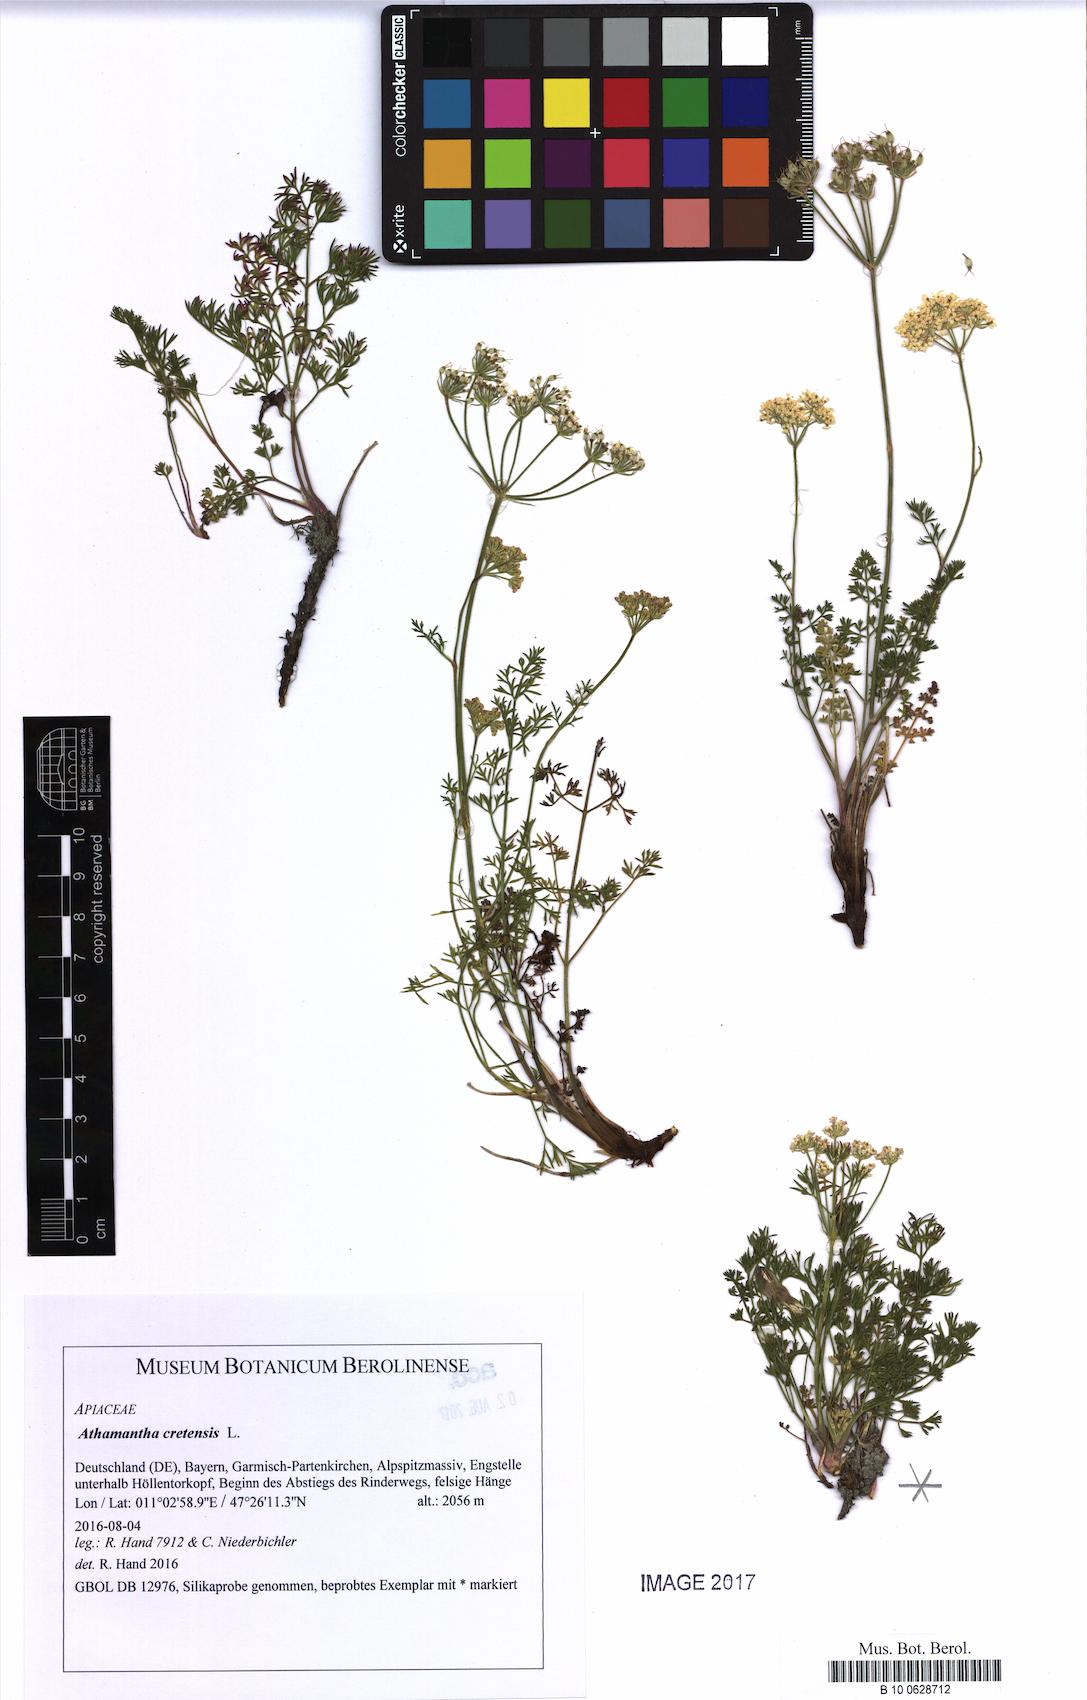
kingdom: Plantae
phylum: Tracheophyta
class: Magnoliopsida
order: Apiales
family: Apiaceae
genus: Athamanta
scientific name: Athamanta cretensis
